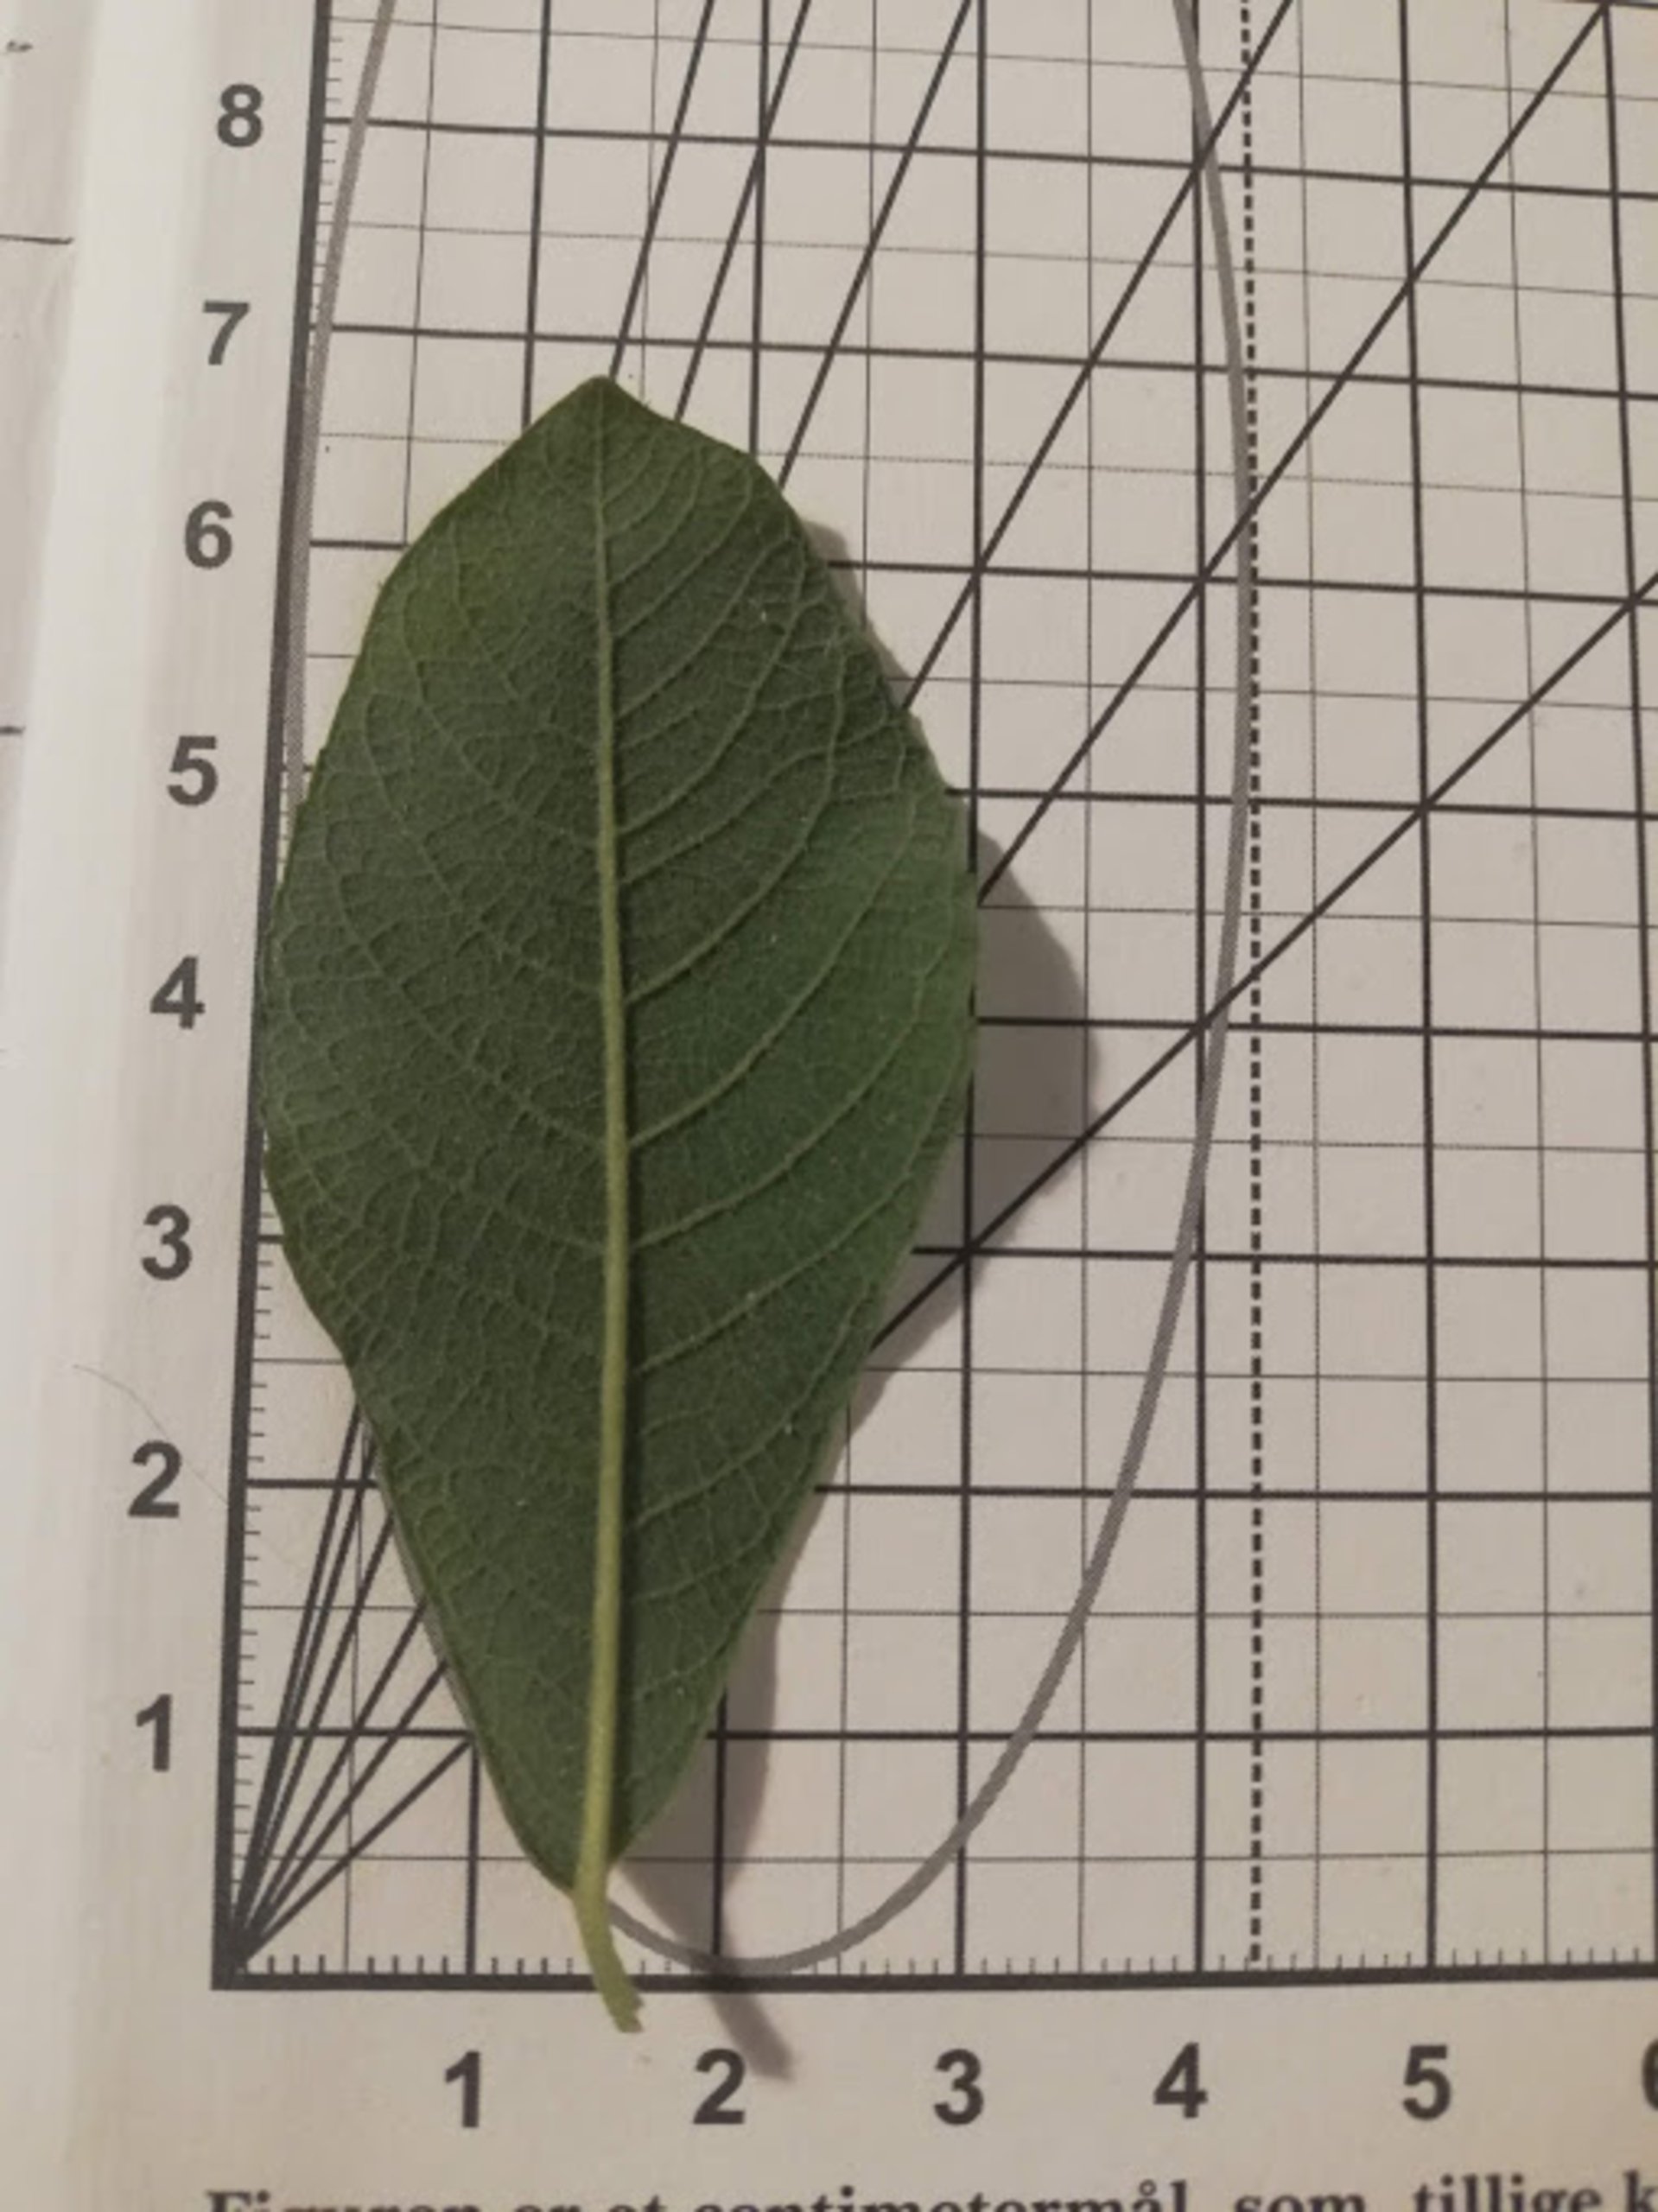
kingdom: Plantae
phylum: Tracheophyta
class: Magnoliopsida
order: Malpighiales
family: Salicaceae
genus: Salix
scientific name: Salix cinerea
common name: Grå-pil
